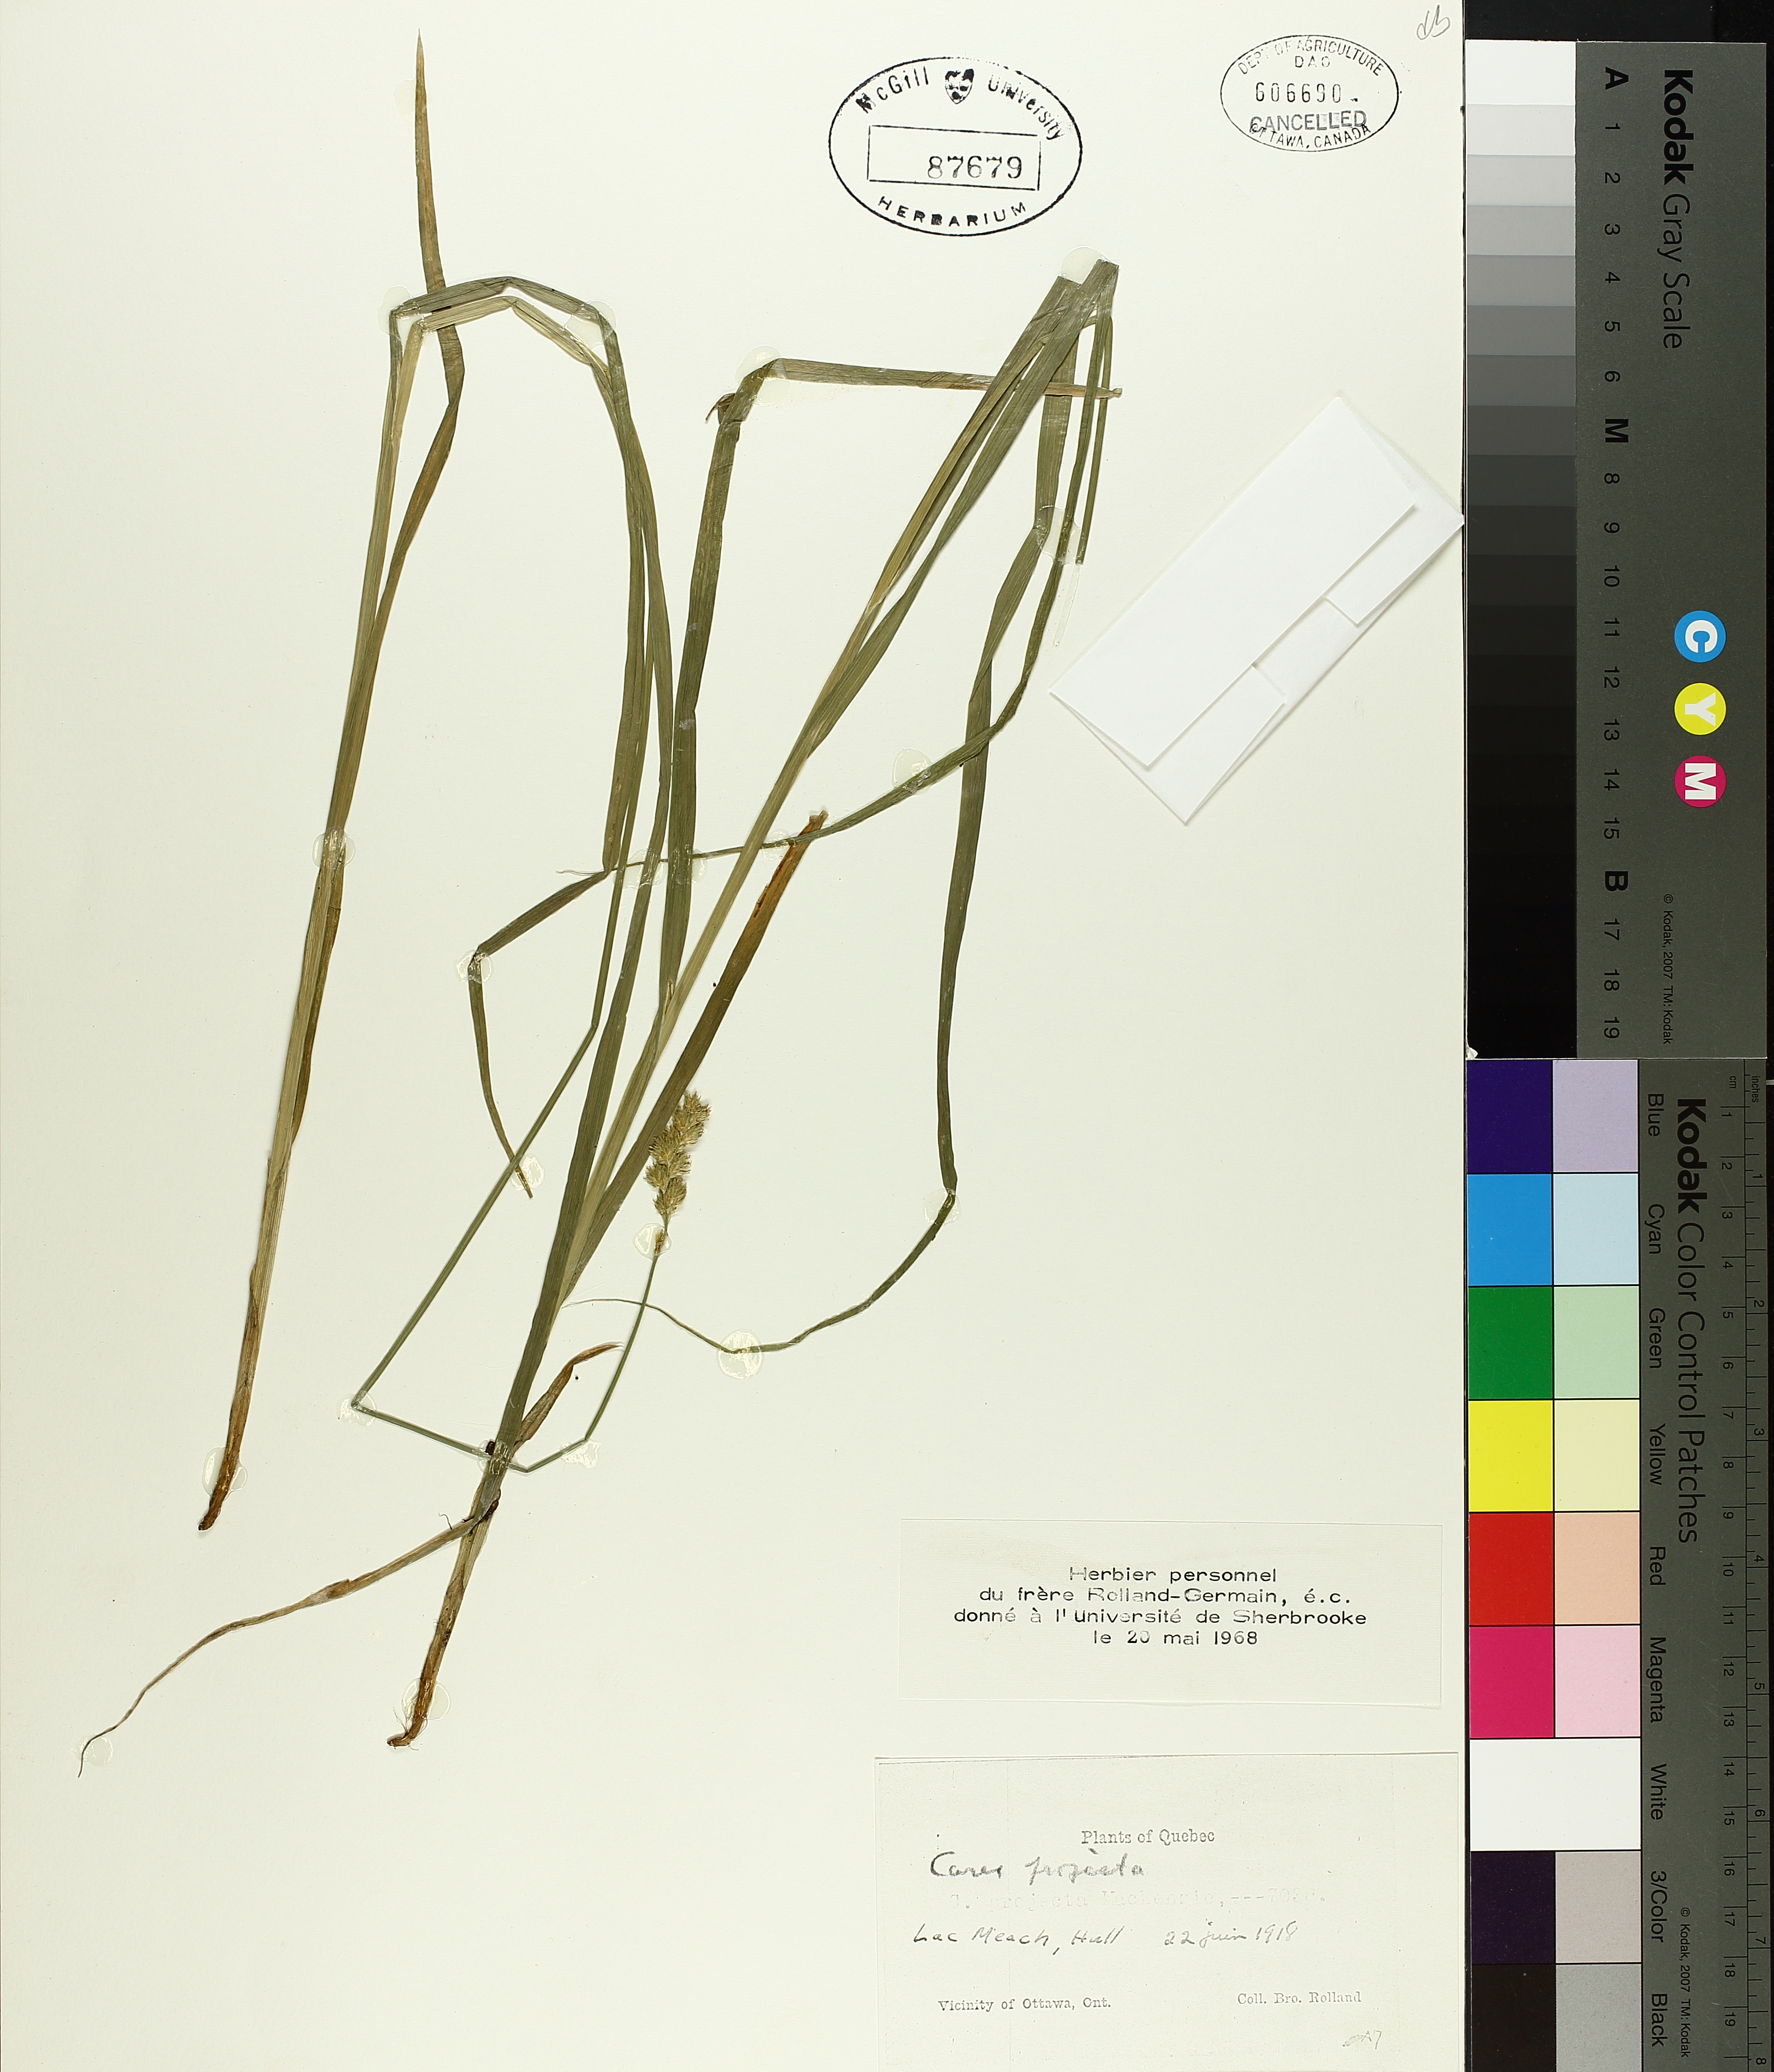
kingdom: Plantae
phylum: Tracheophyta
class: Liliopsida
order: Poales
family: Cyperaceae
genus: Carex
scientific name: Carex projecta
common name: Loose-headed oval sedge
